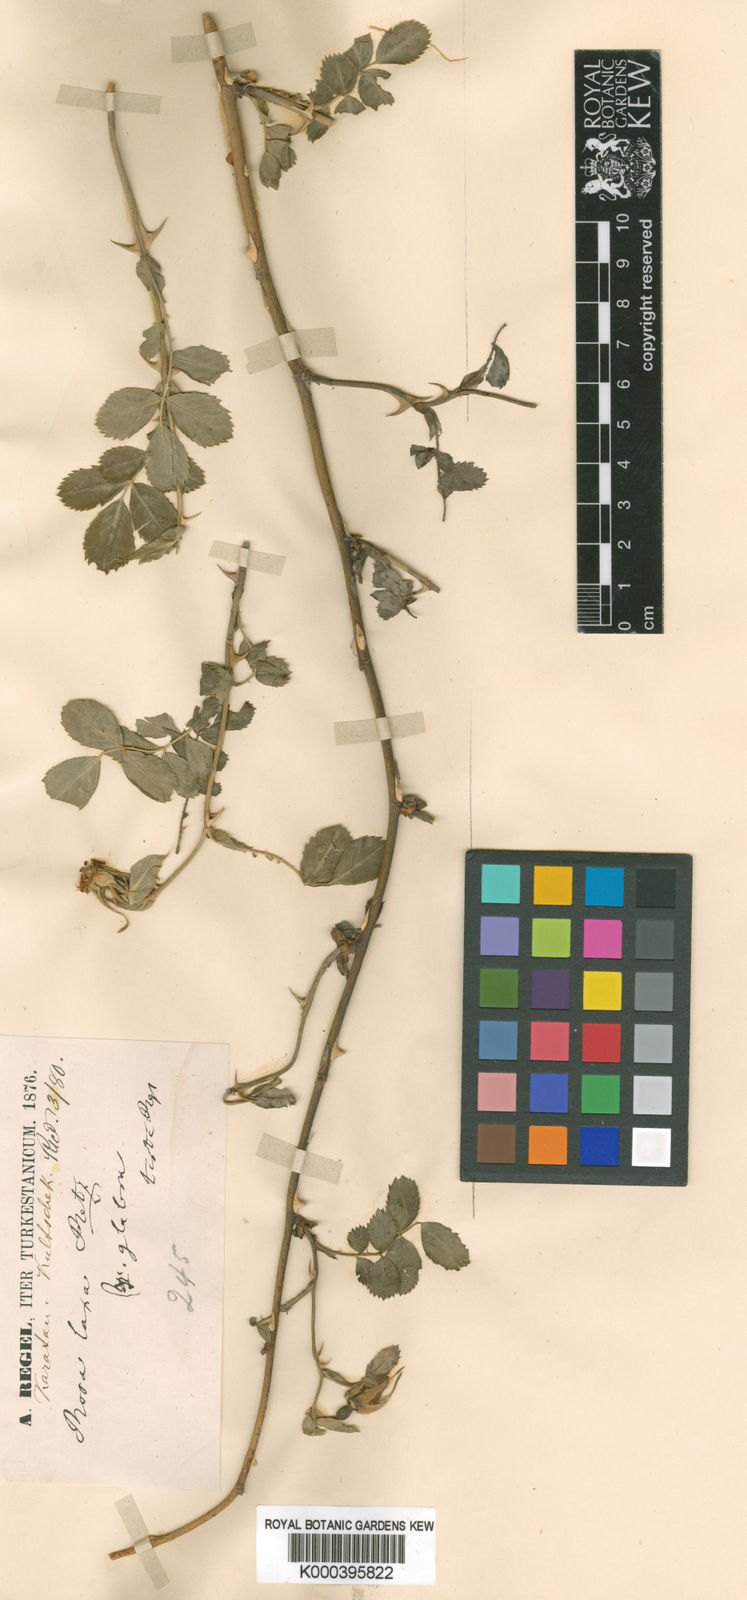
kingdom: Plantae
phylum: Tracheophyta
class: Magnoliopsida
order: Rosales
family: Rosaceae
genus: Rosa
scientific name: Rosa laxa
